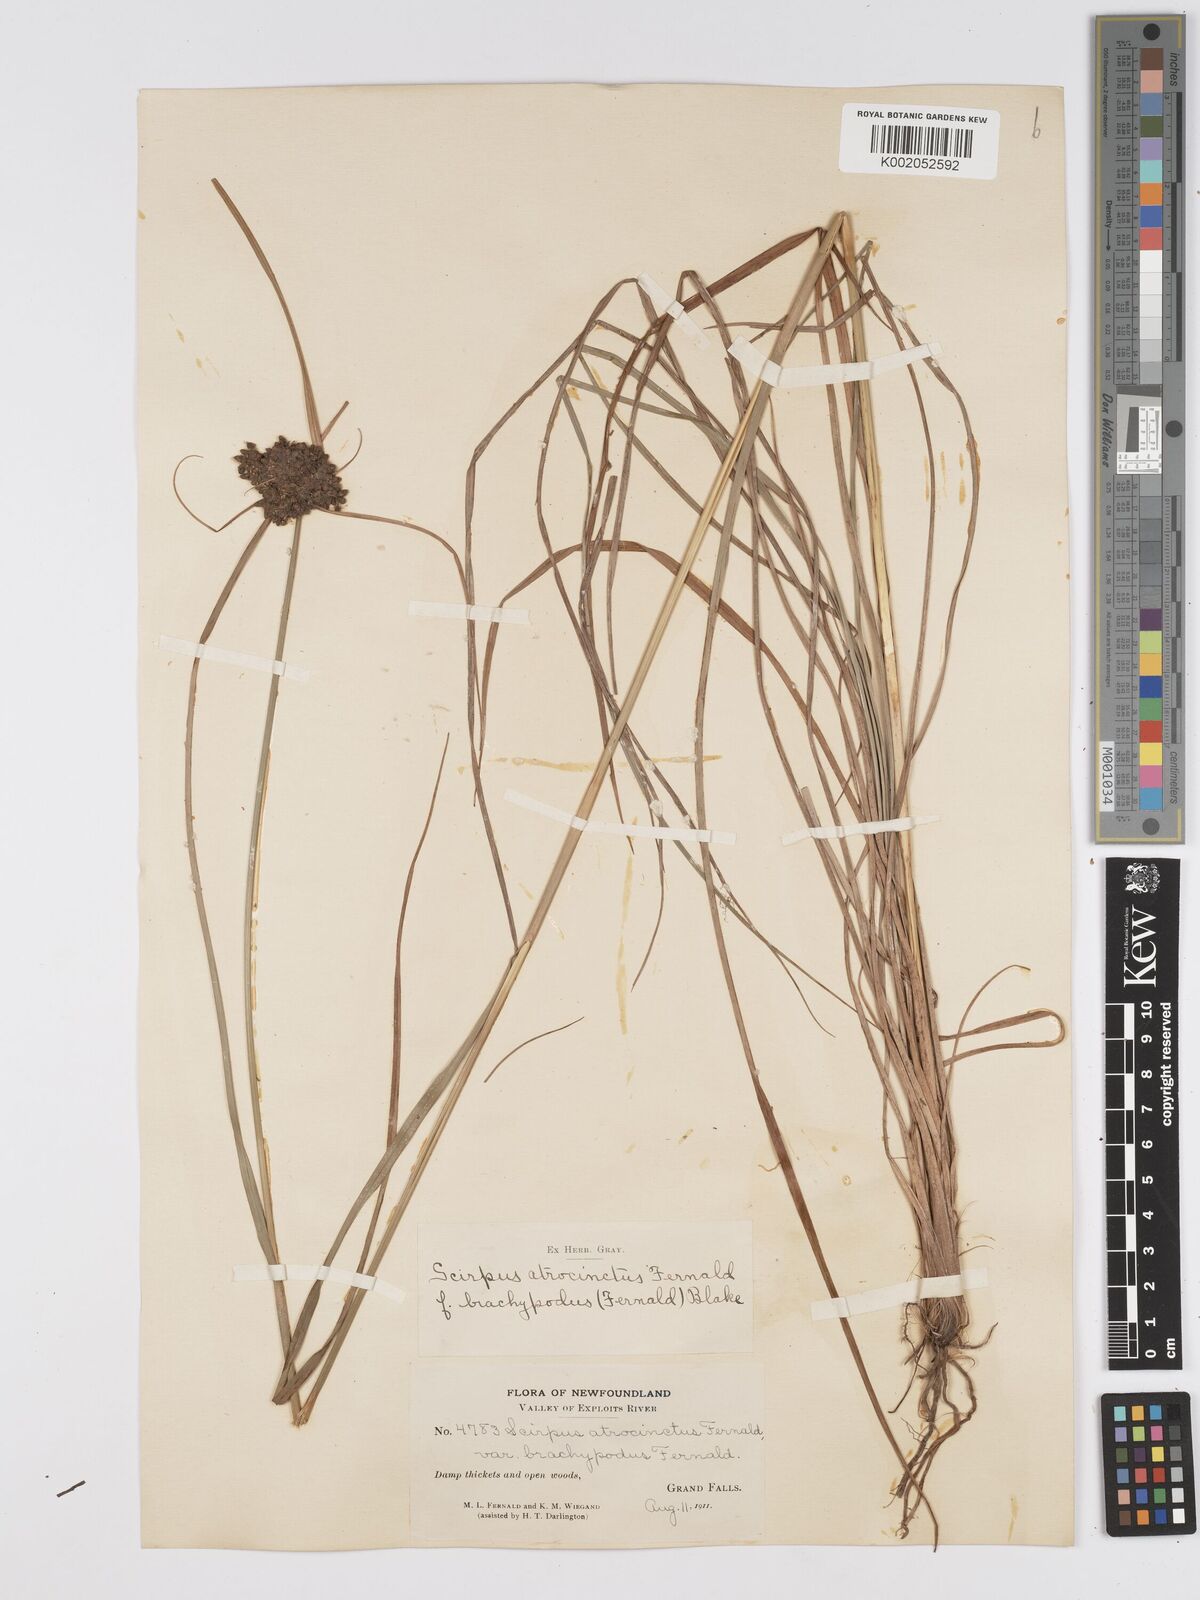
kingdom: Plantae
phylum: Tracheophyta
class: Liliopsida
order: Poales
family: Cyperaceae
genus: Scirpus
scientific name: Scirpus atrocinctus
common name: Black-girdled bulrush
